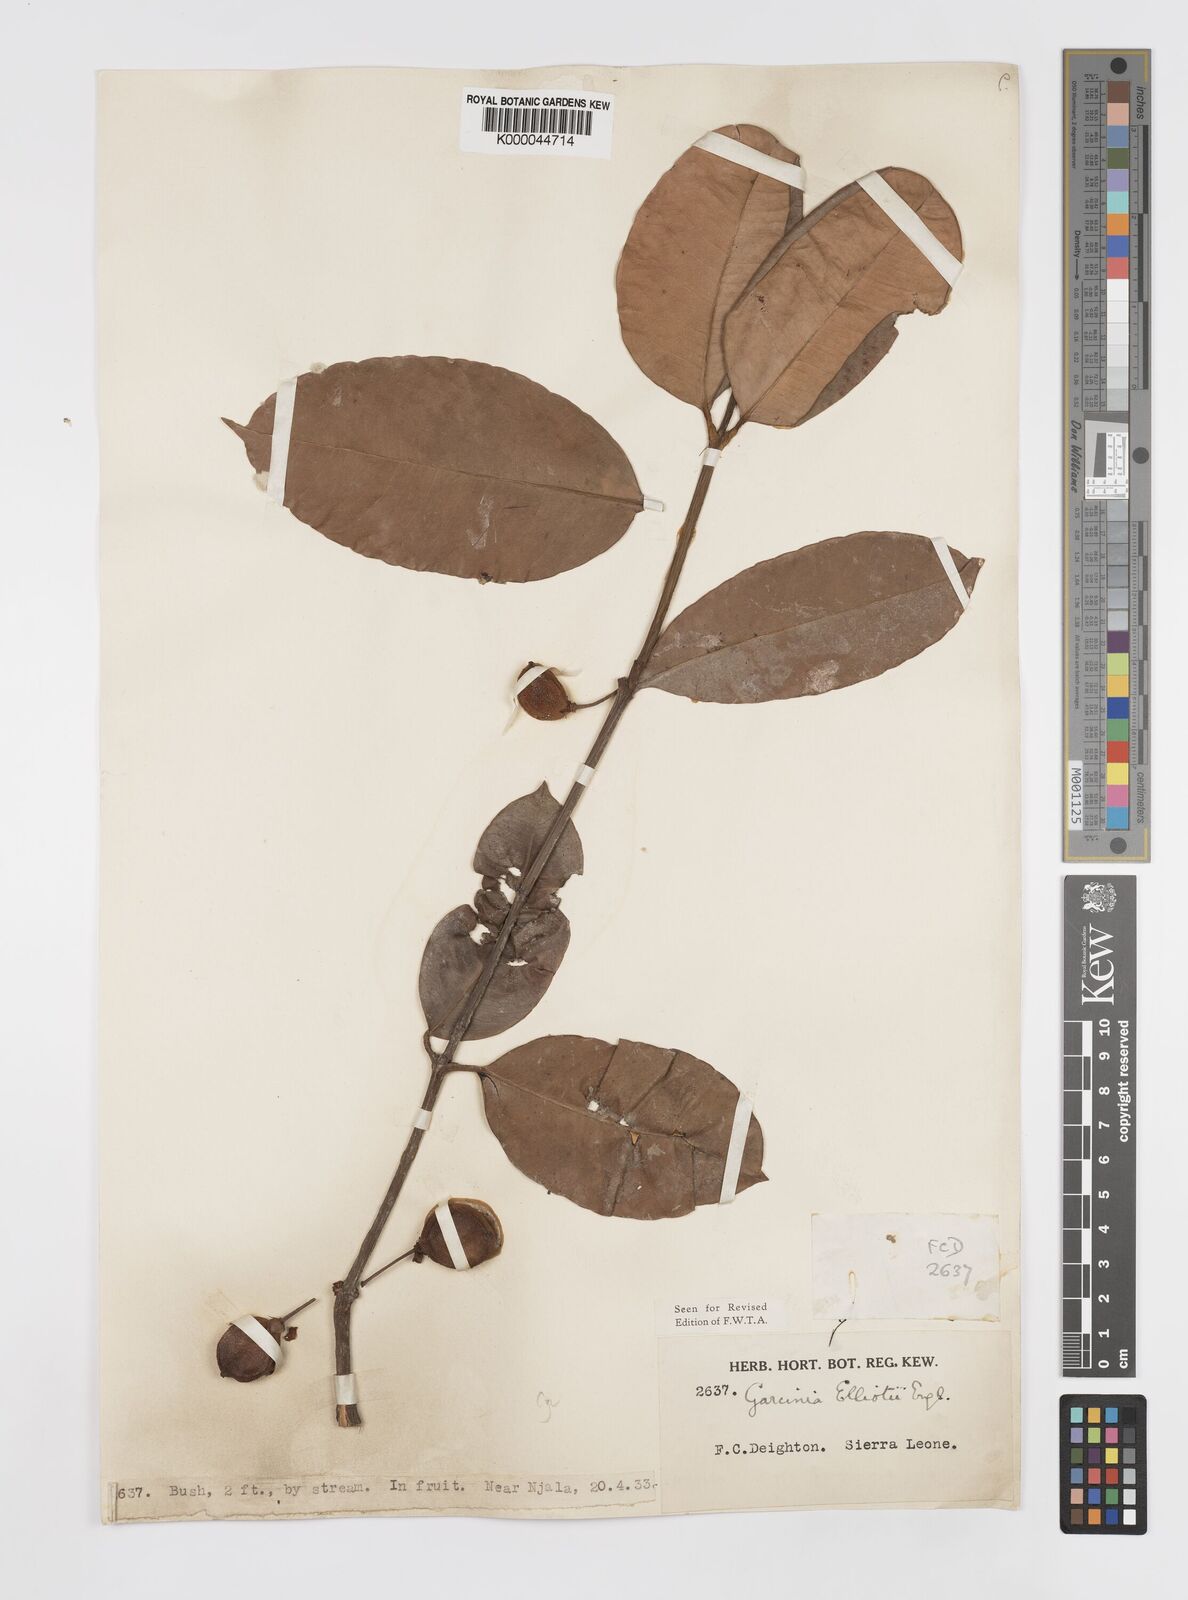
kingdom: Plantae
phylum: Tracheophyta
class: Magnoliopsida
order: Malpighiales
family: Clusiaceae
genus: Garcinia
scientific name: Garcinia elliotii
